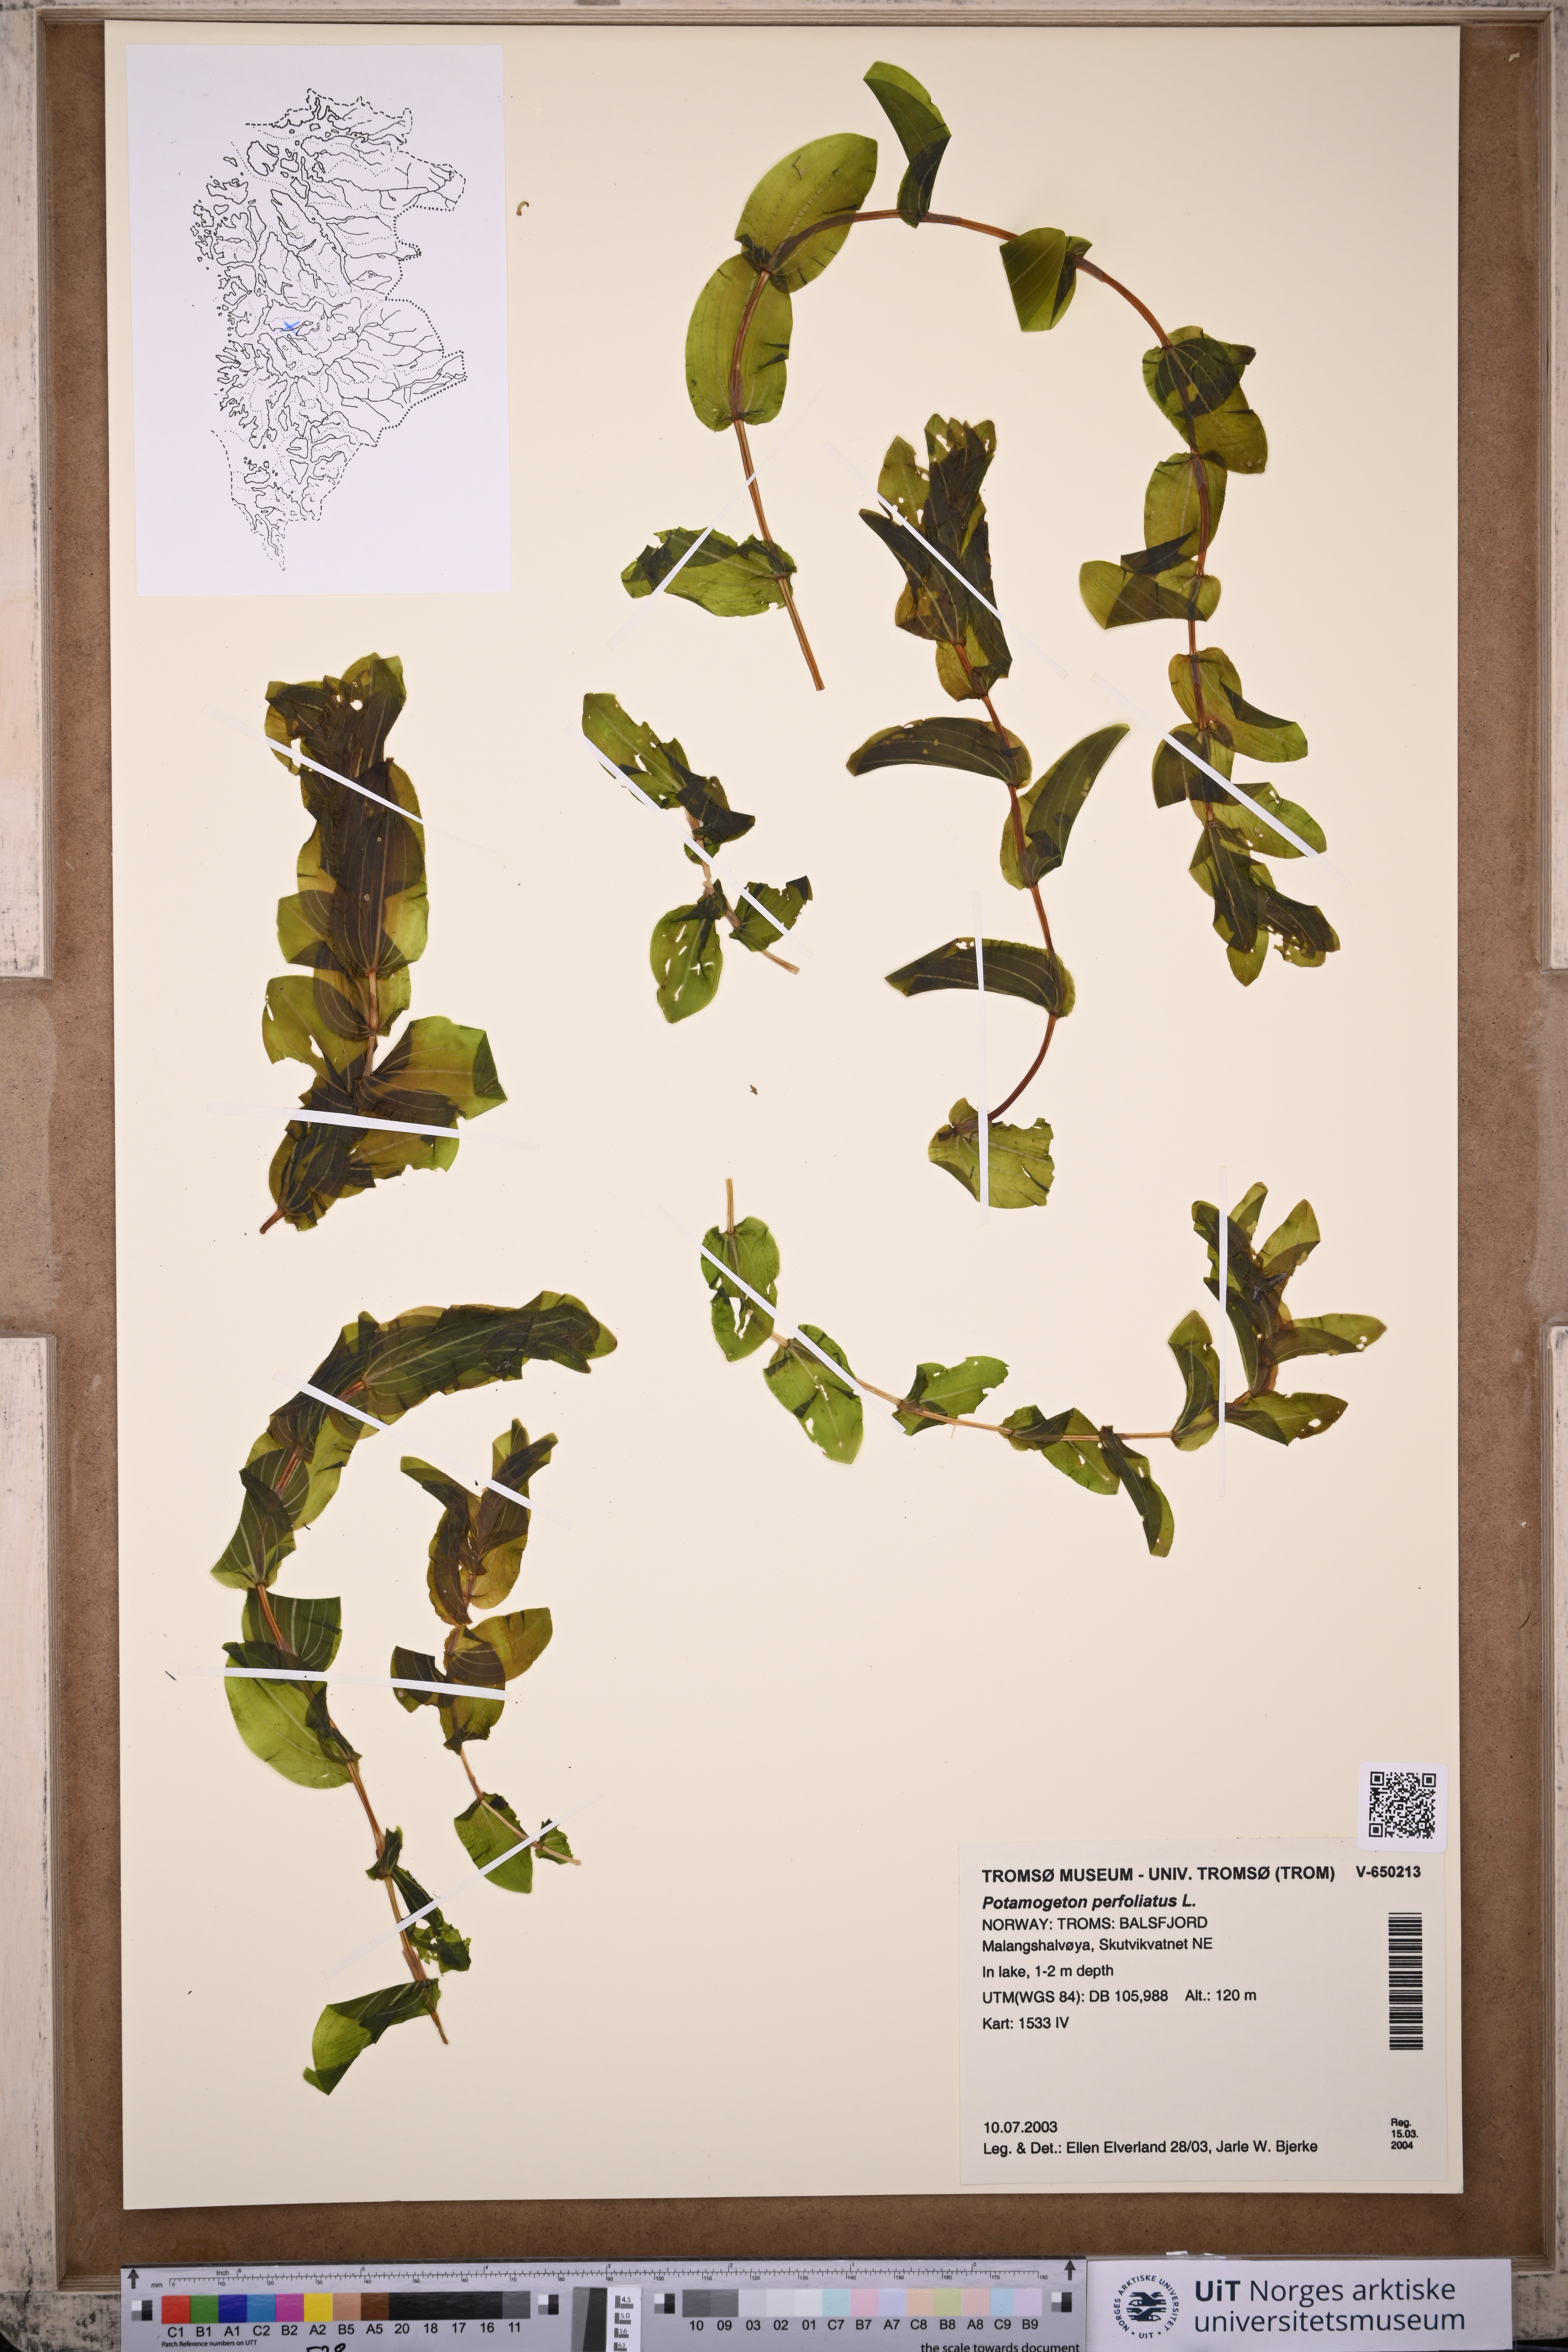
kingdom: Plantae
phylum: Tracheophyta
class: Liliopsida
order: Alismatales
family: Potamogetonaceae
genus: Potamogeton
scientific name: Potamogeton perfoliatus
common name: Perfoliate pondweed
